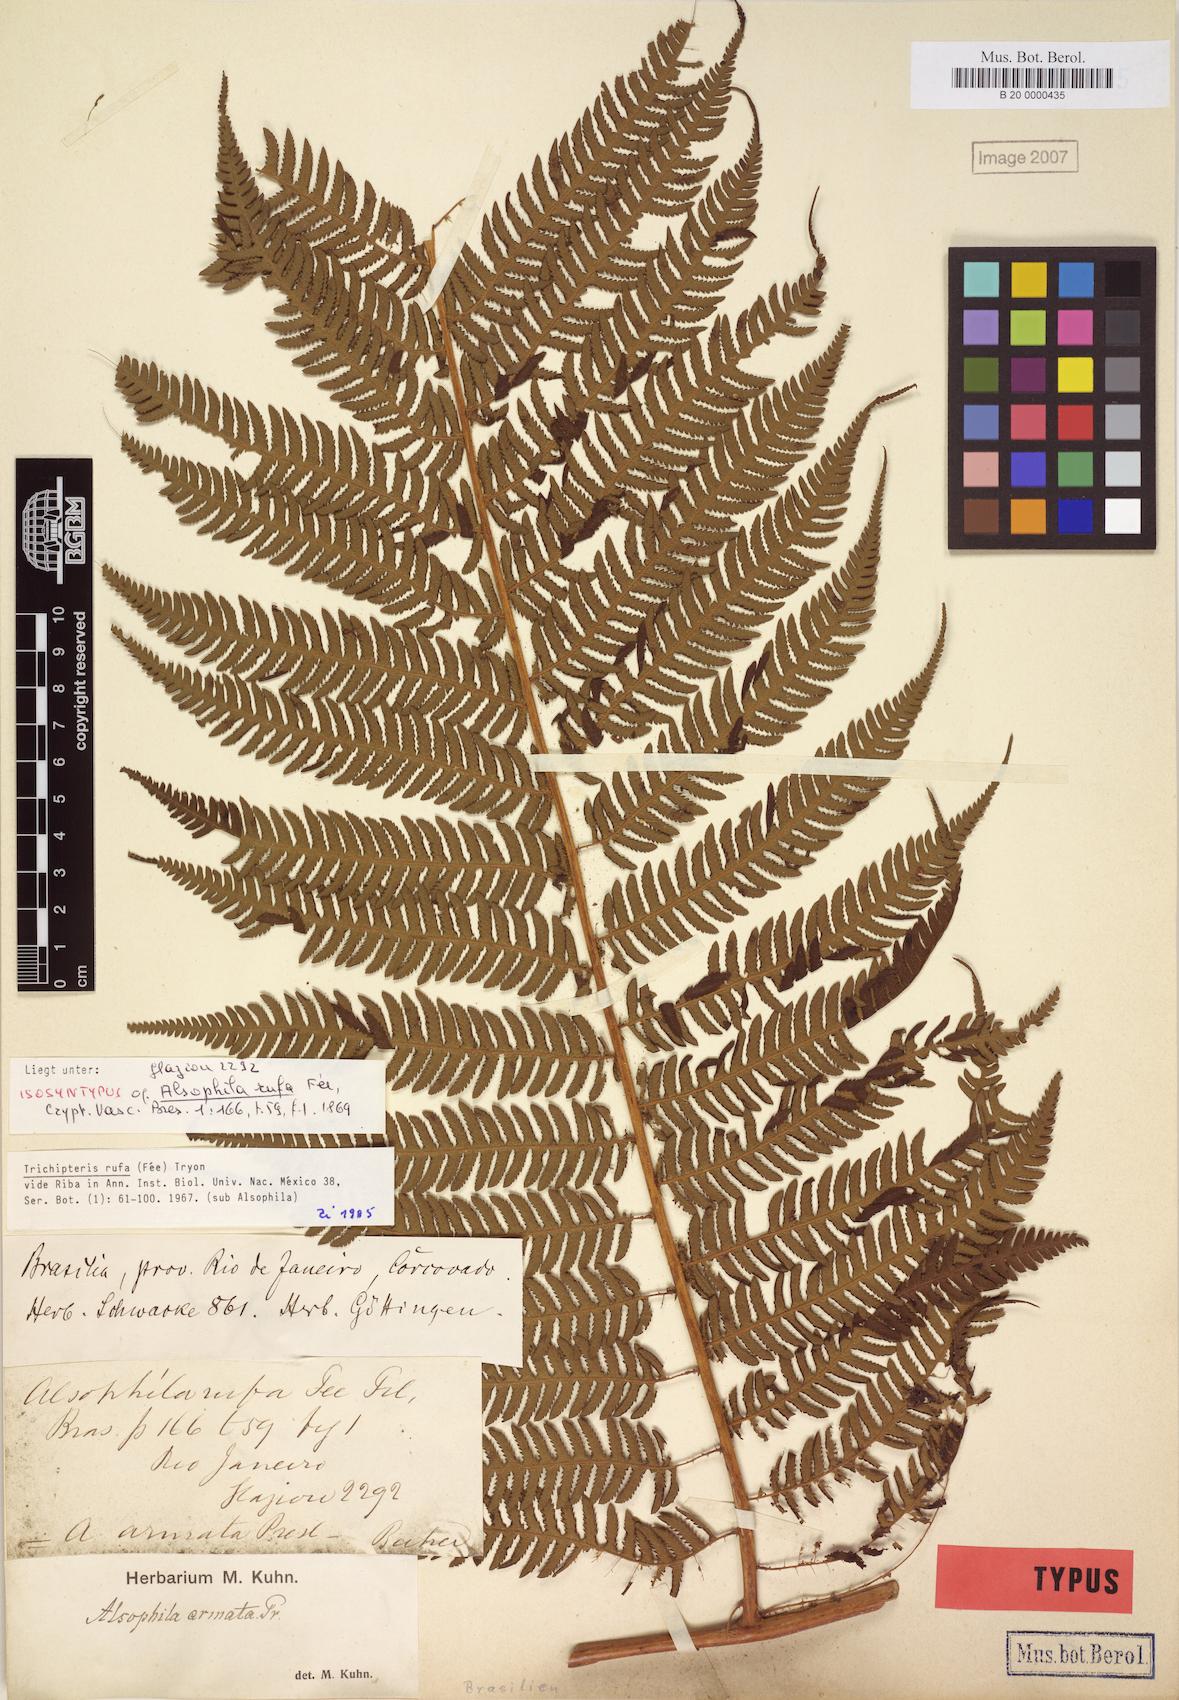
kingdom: Plantae
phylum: Tracheophyta
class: Polypodiopsida
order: Cyatheales
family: Cyatheaceae
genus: Cyathea
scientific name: Cyathea rufa
